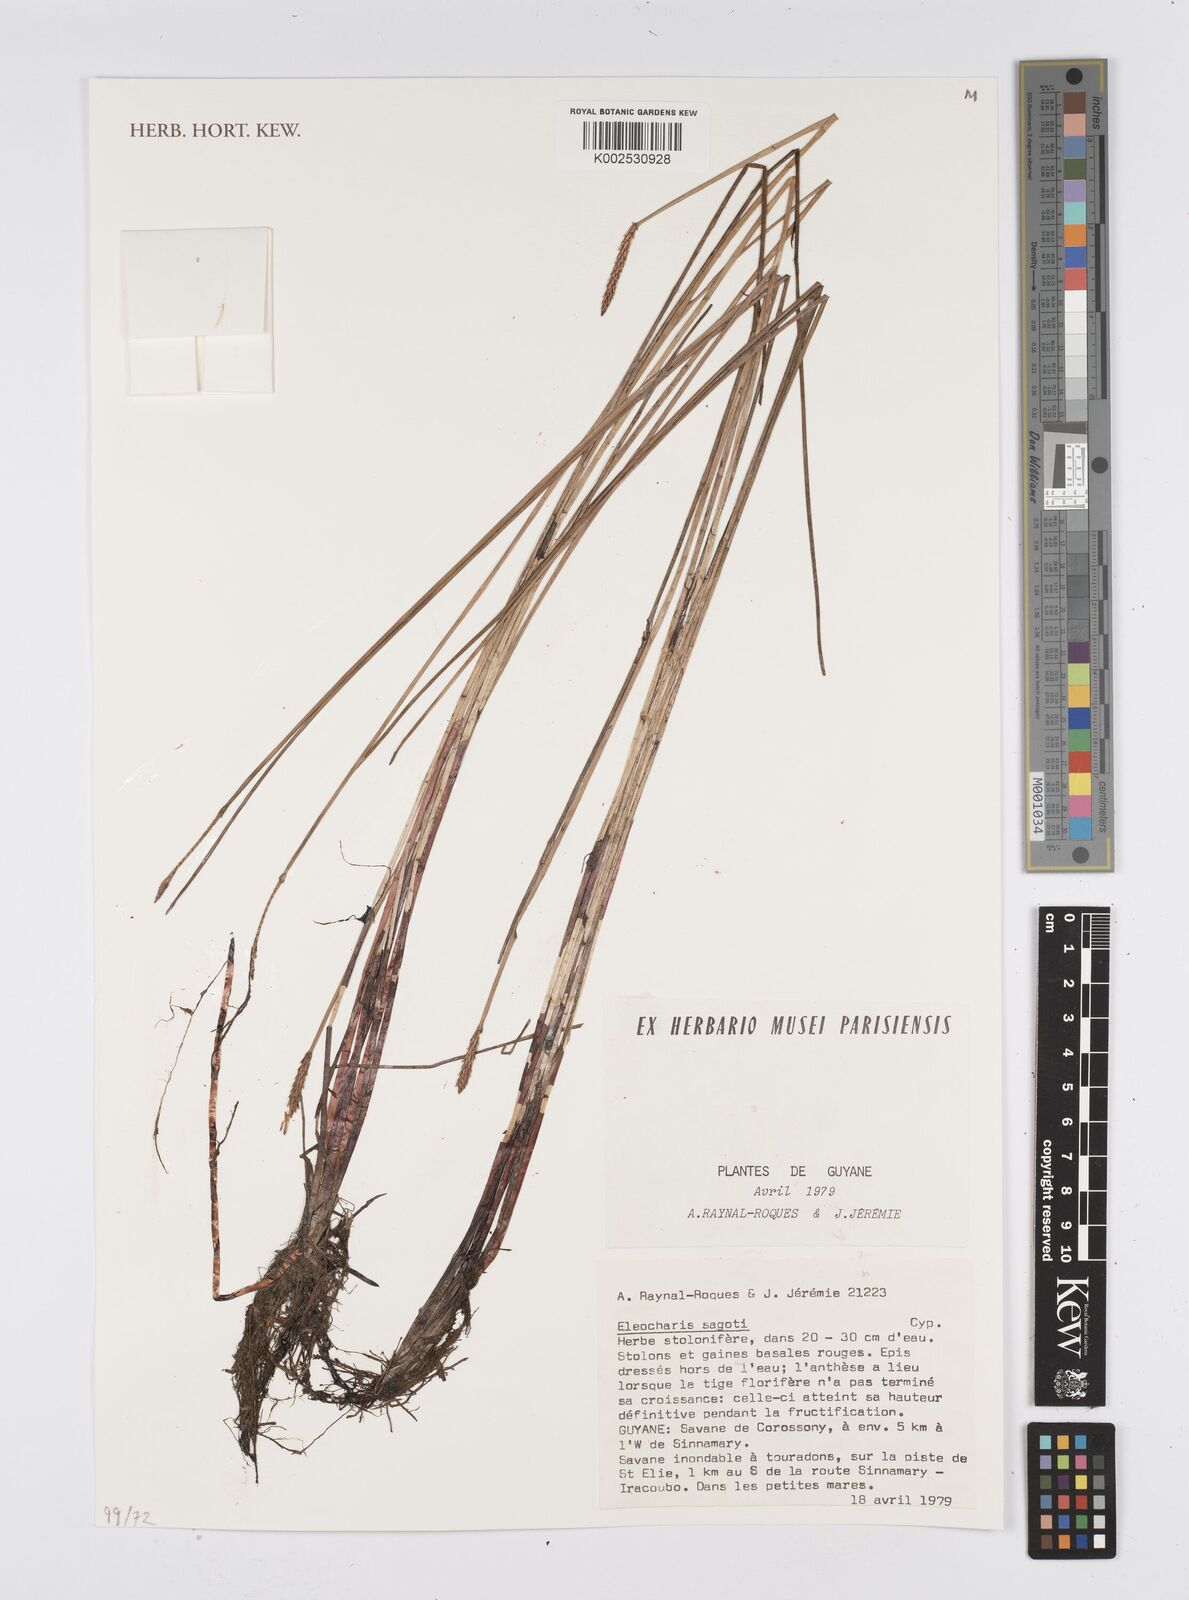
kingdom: Plantae
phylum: Tracheophyta
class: Liliopsida
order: Poales
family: Cyperaceae
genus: Eleocharis
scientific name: Eleocharis jelskiana
